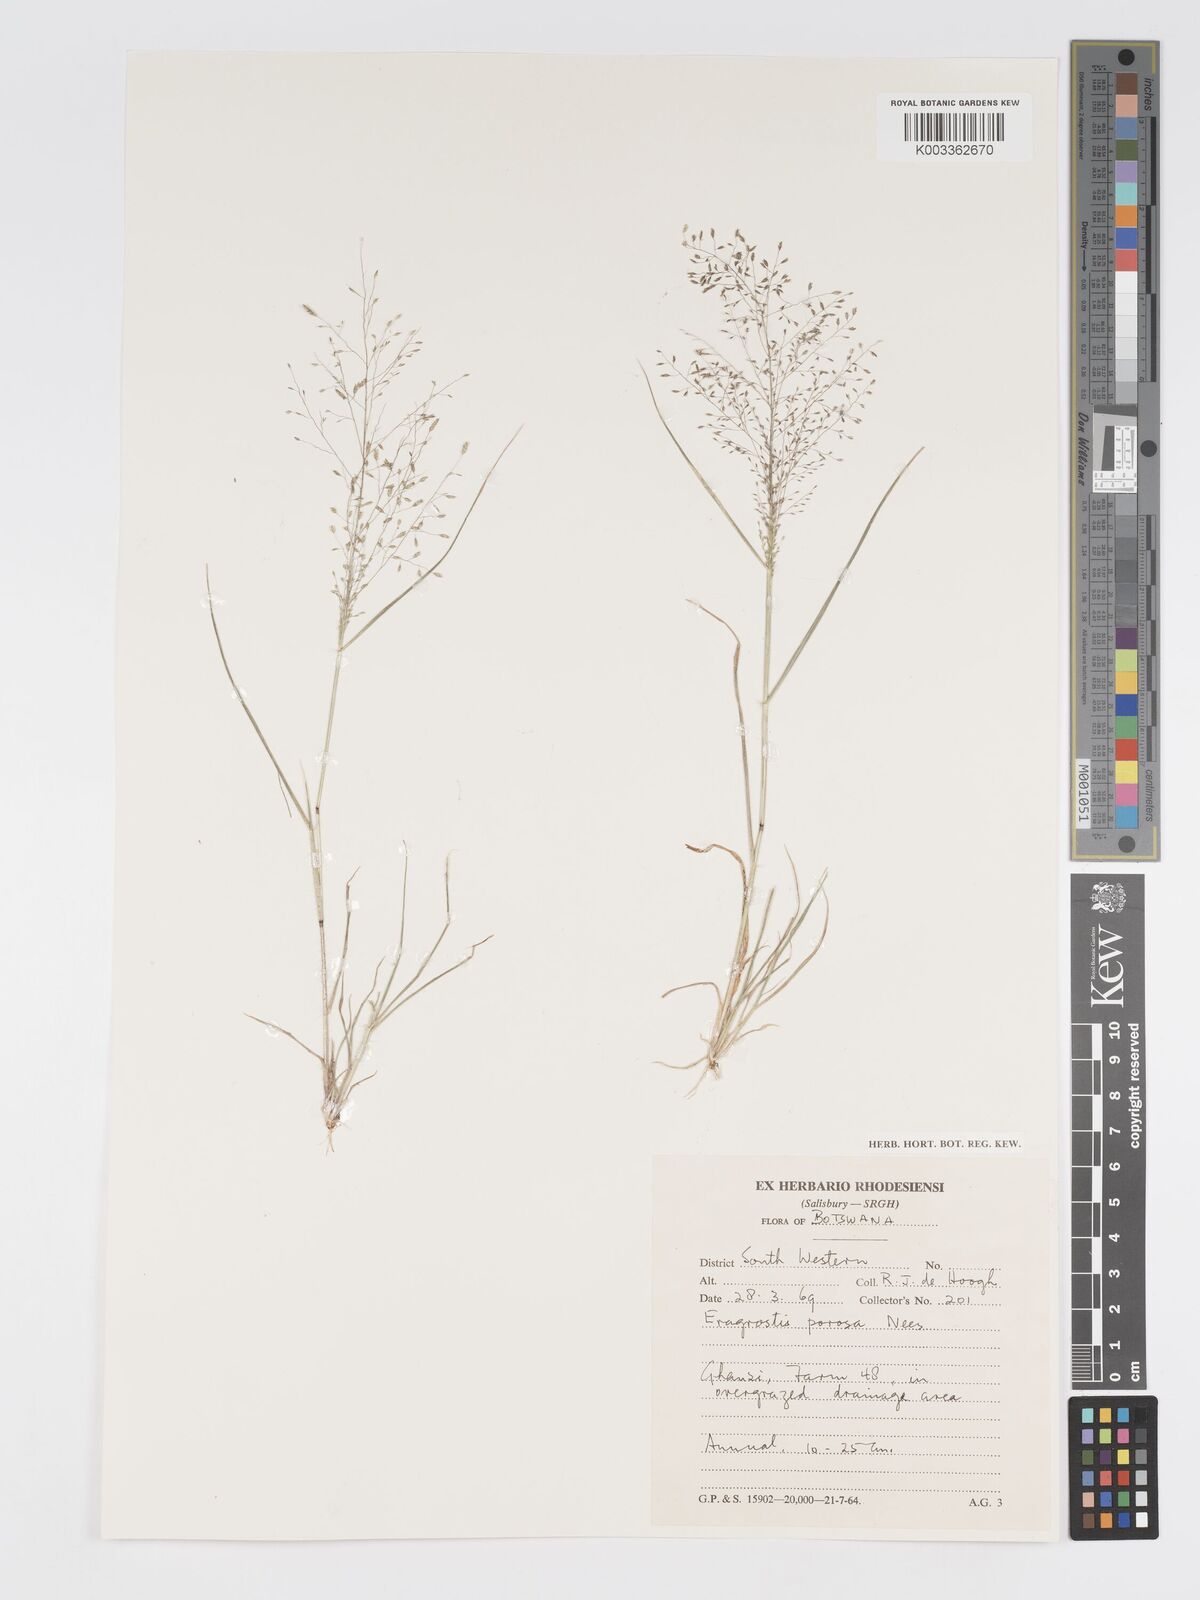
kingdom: Plantae
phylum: Tracheophyta
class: Liliopsida
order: Poales
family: Poaceae
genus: Eragrostis
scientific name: Eragrostis porosa
